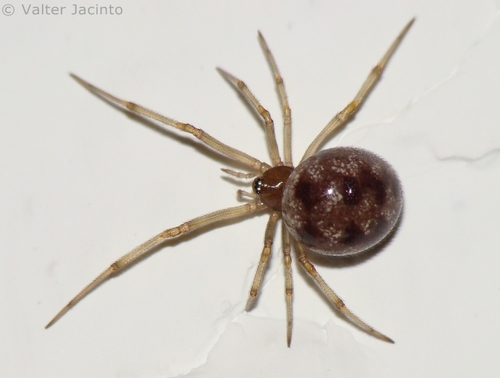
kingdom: Animalia
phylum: Arthropoda
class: Arachnida
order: Araneae
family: Theridiidae
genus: Steatoda
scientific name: Steatoda triangulosa
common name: Triangulate bud spider
